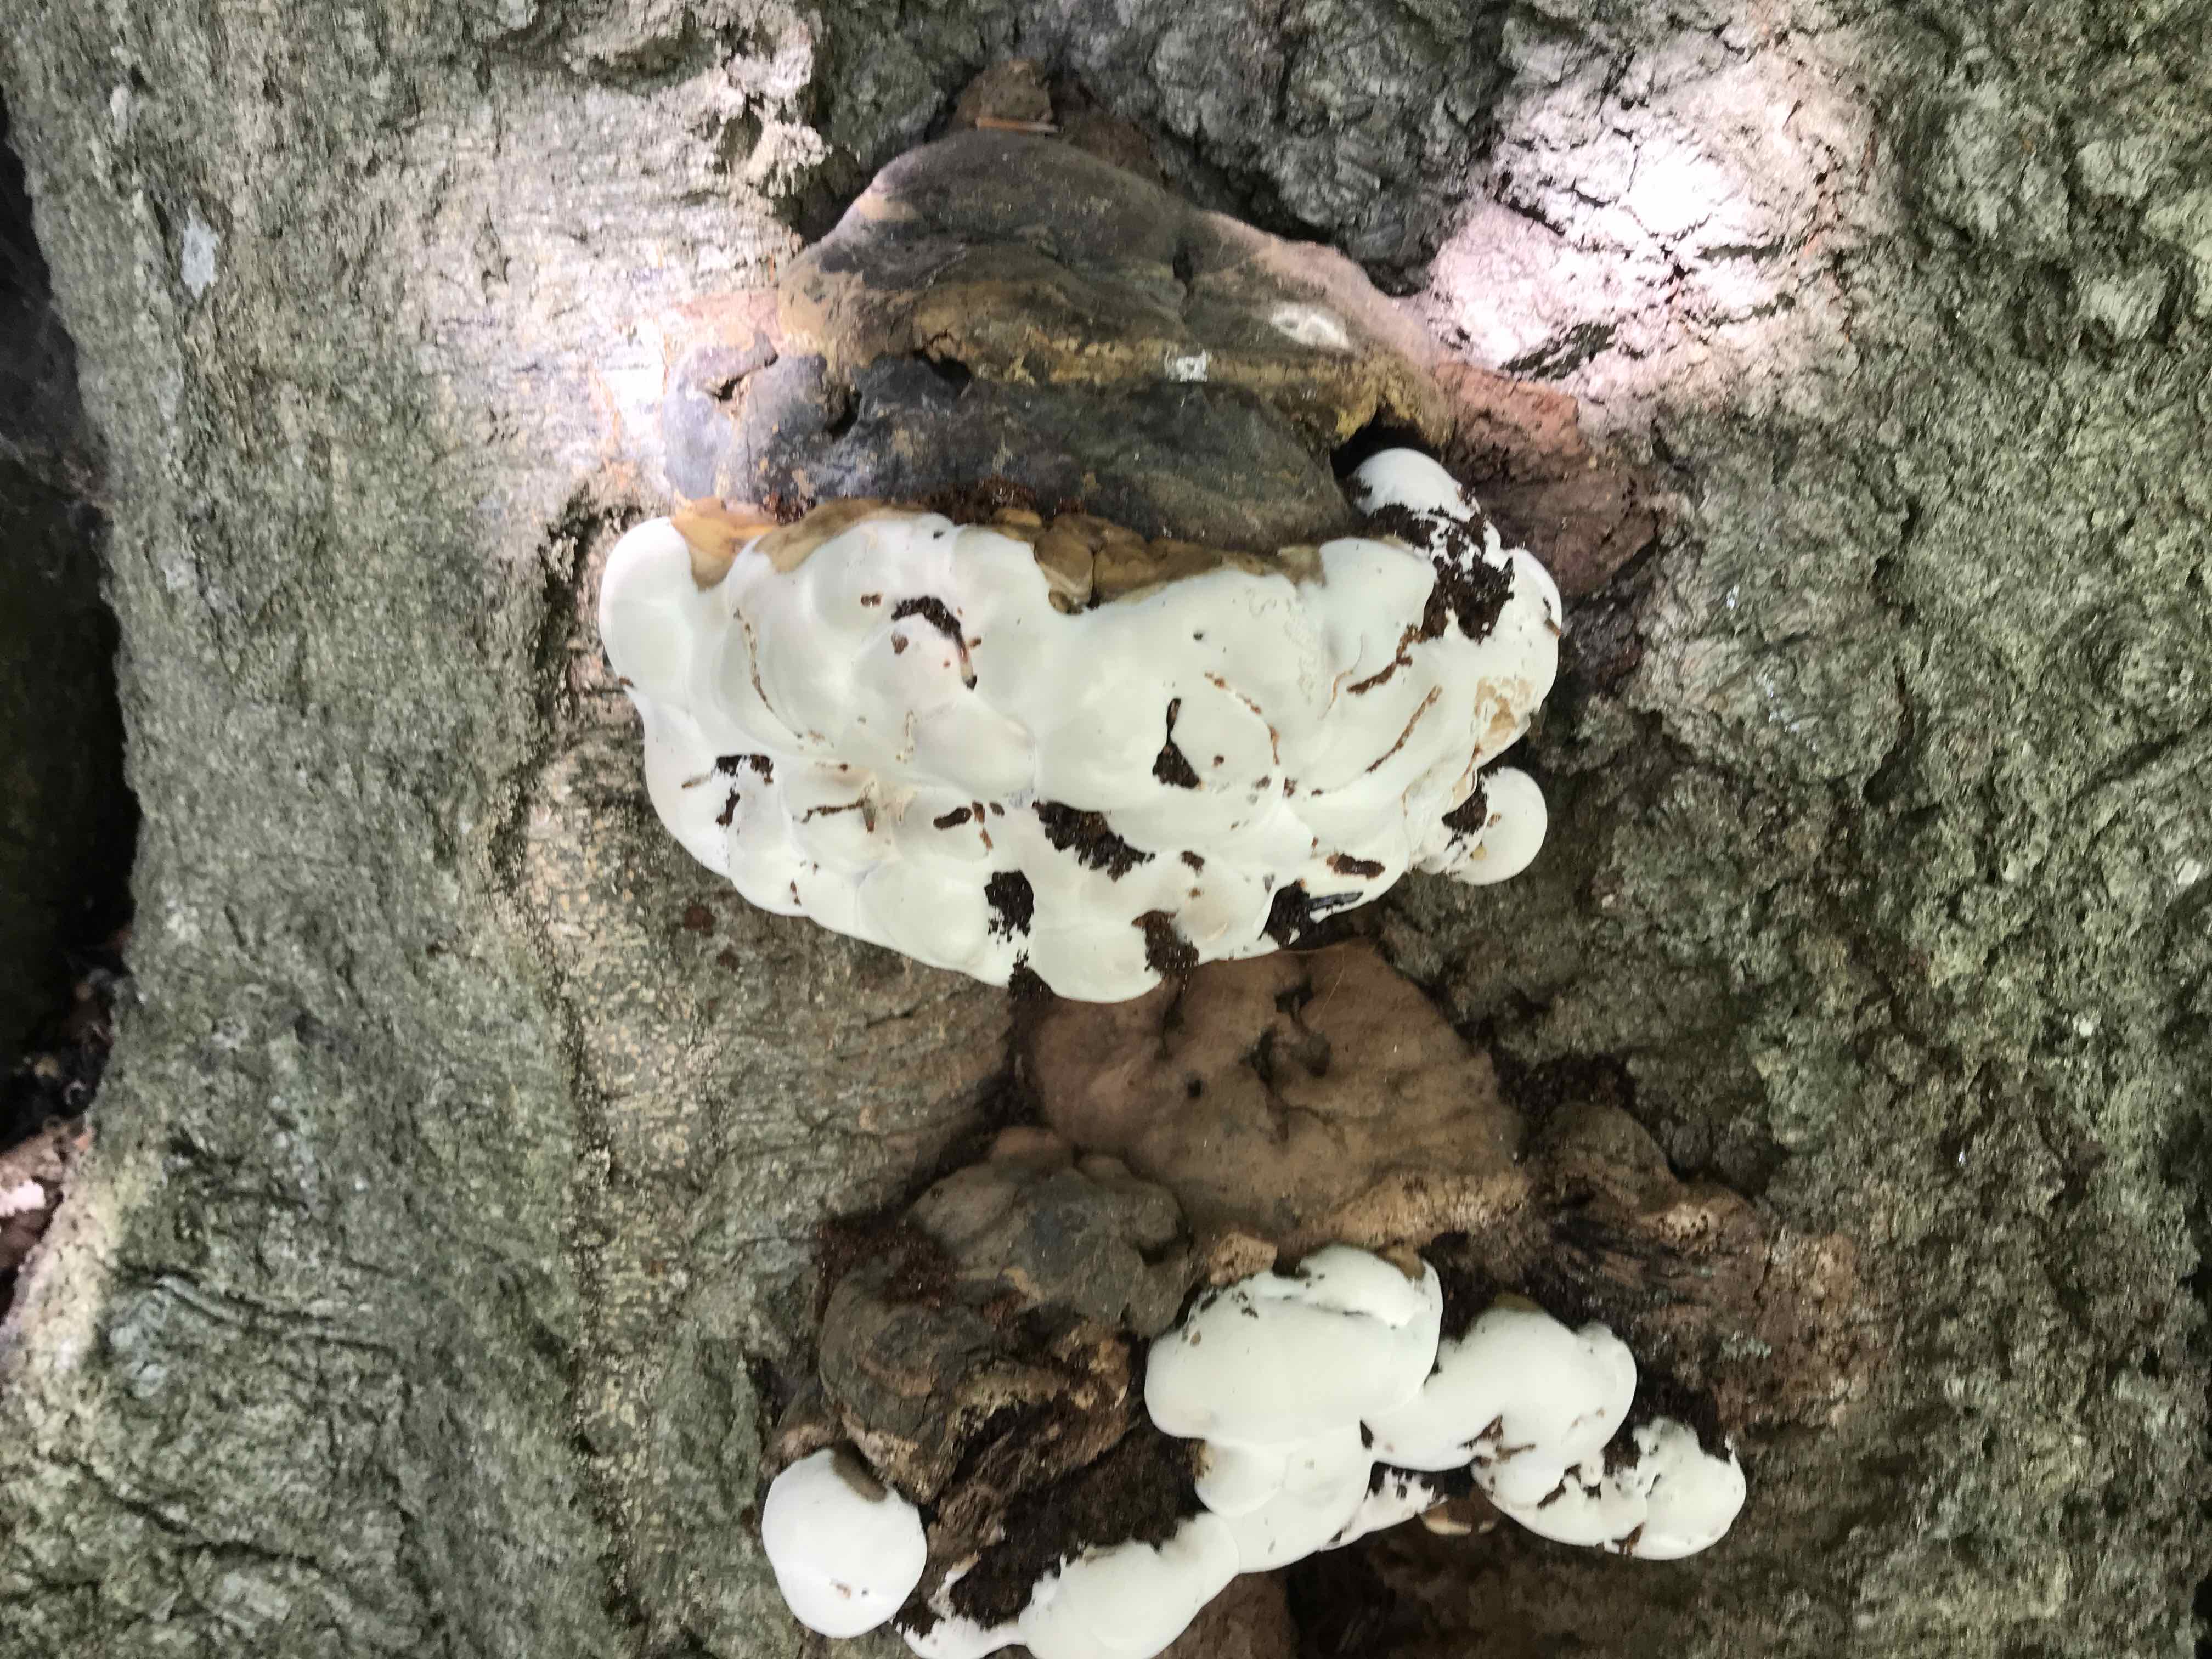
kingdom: Fungi
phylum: Basidiomycota
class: Agaricomycetes
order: Polyporales
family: Polyporaceae
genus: Ganoderma
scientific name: Ganoderma pfeifferi
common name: kobberrød lakporesvamp
